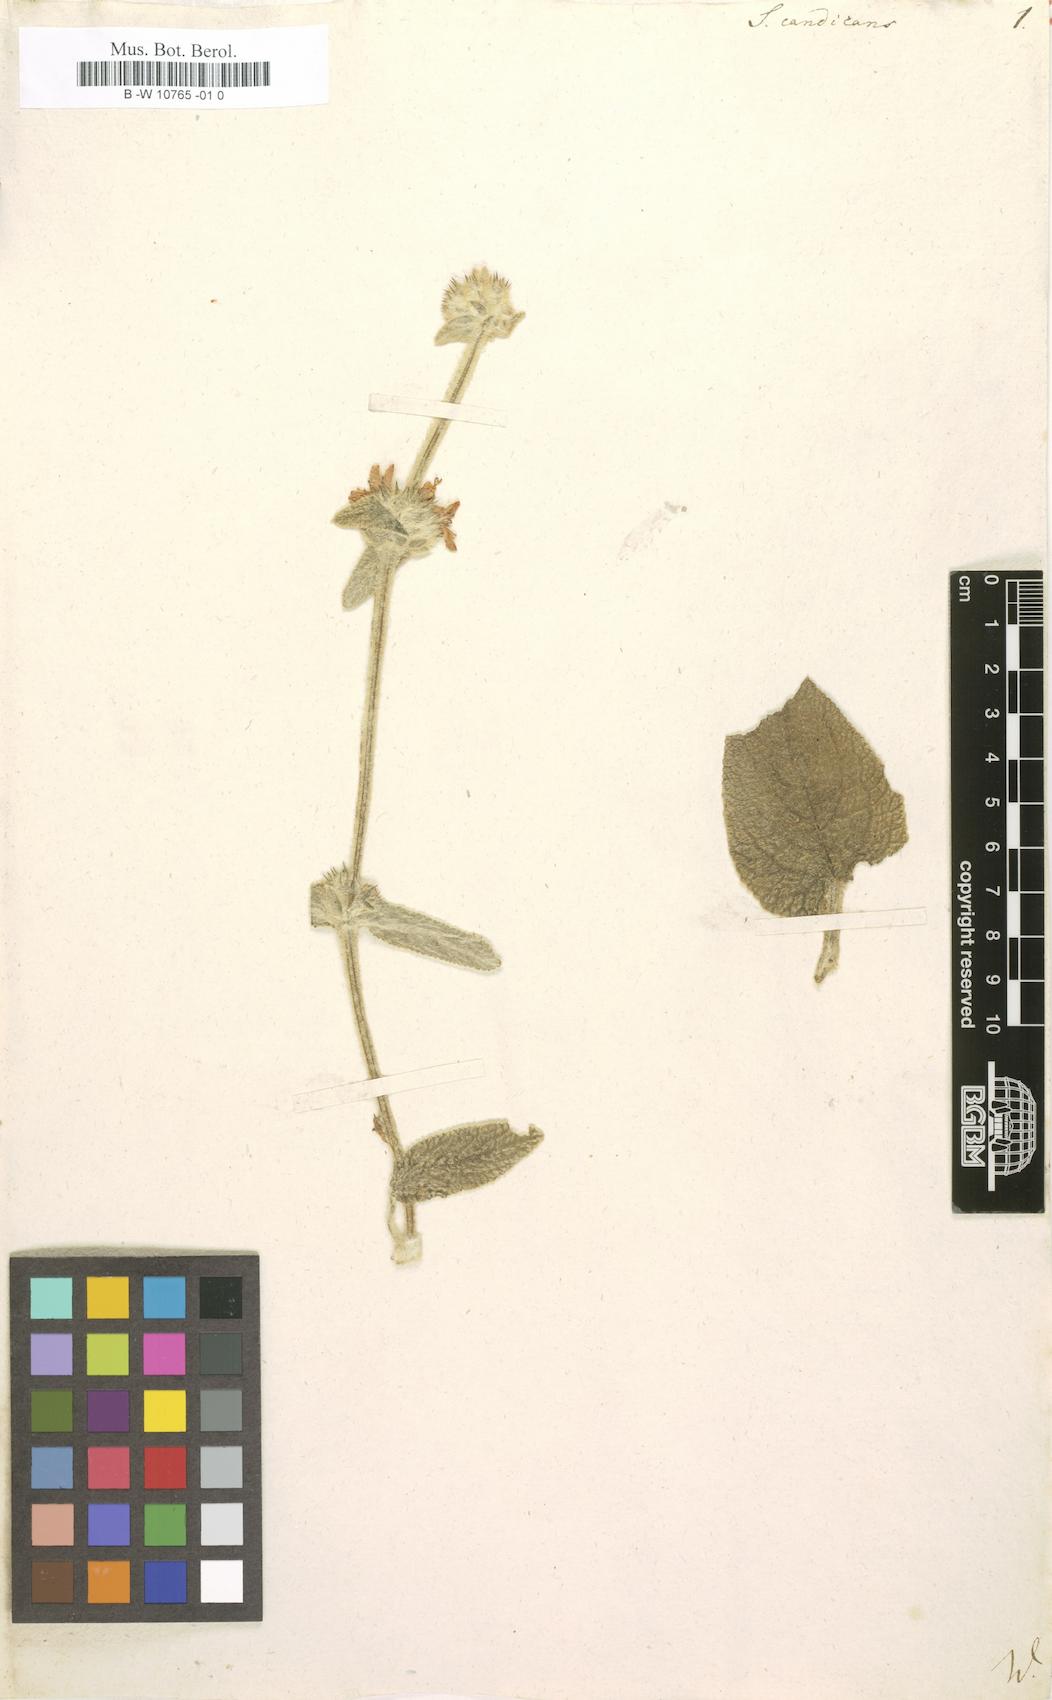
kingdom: Plantae
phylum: Tracheophyta
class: Magnoliopsida
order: Lamiales
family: Lamiaceae
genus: Sideritis
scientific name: Sideritis candicans
